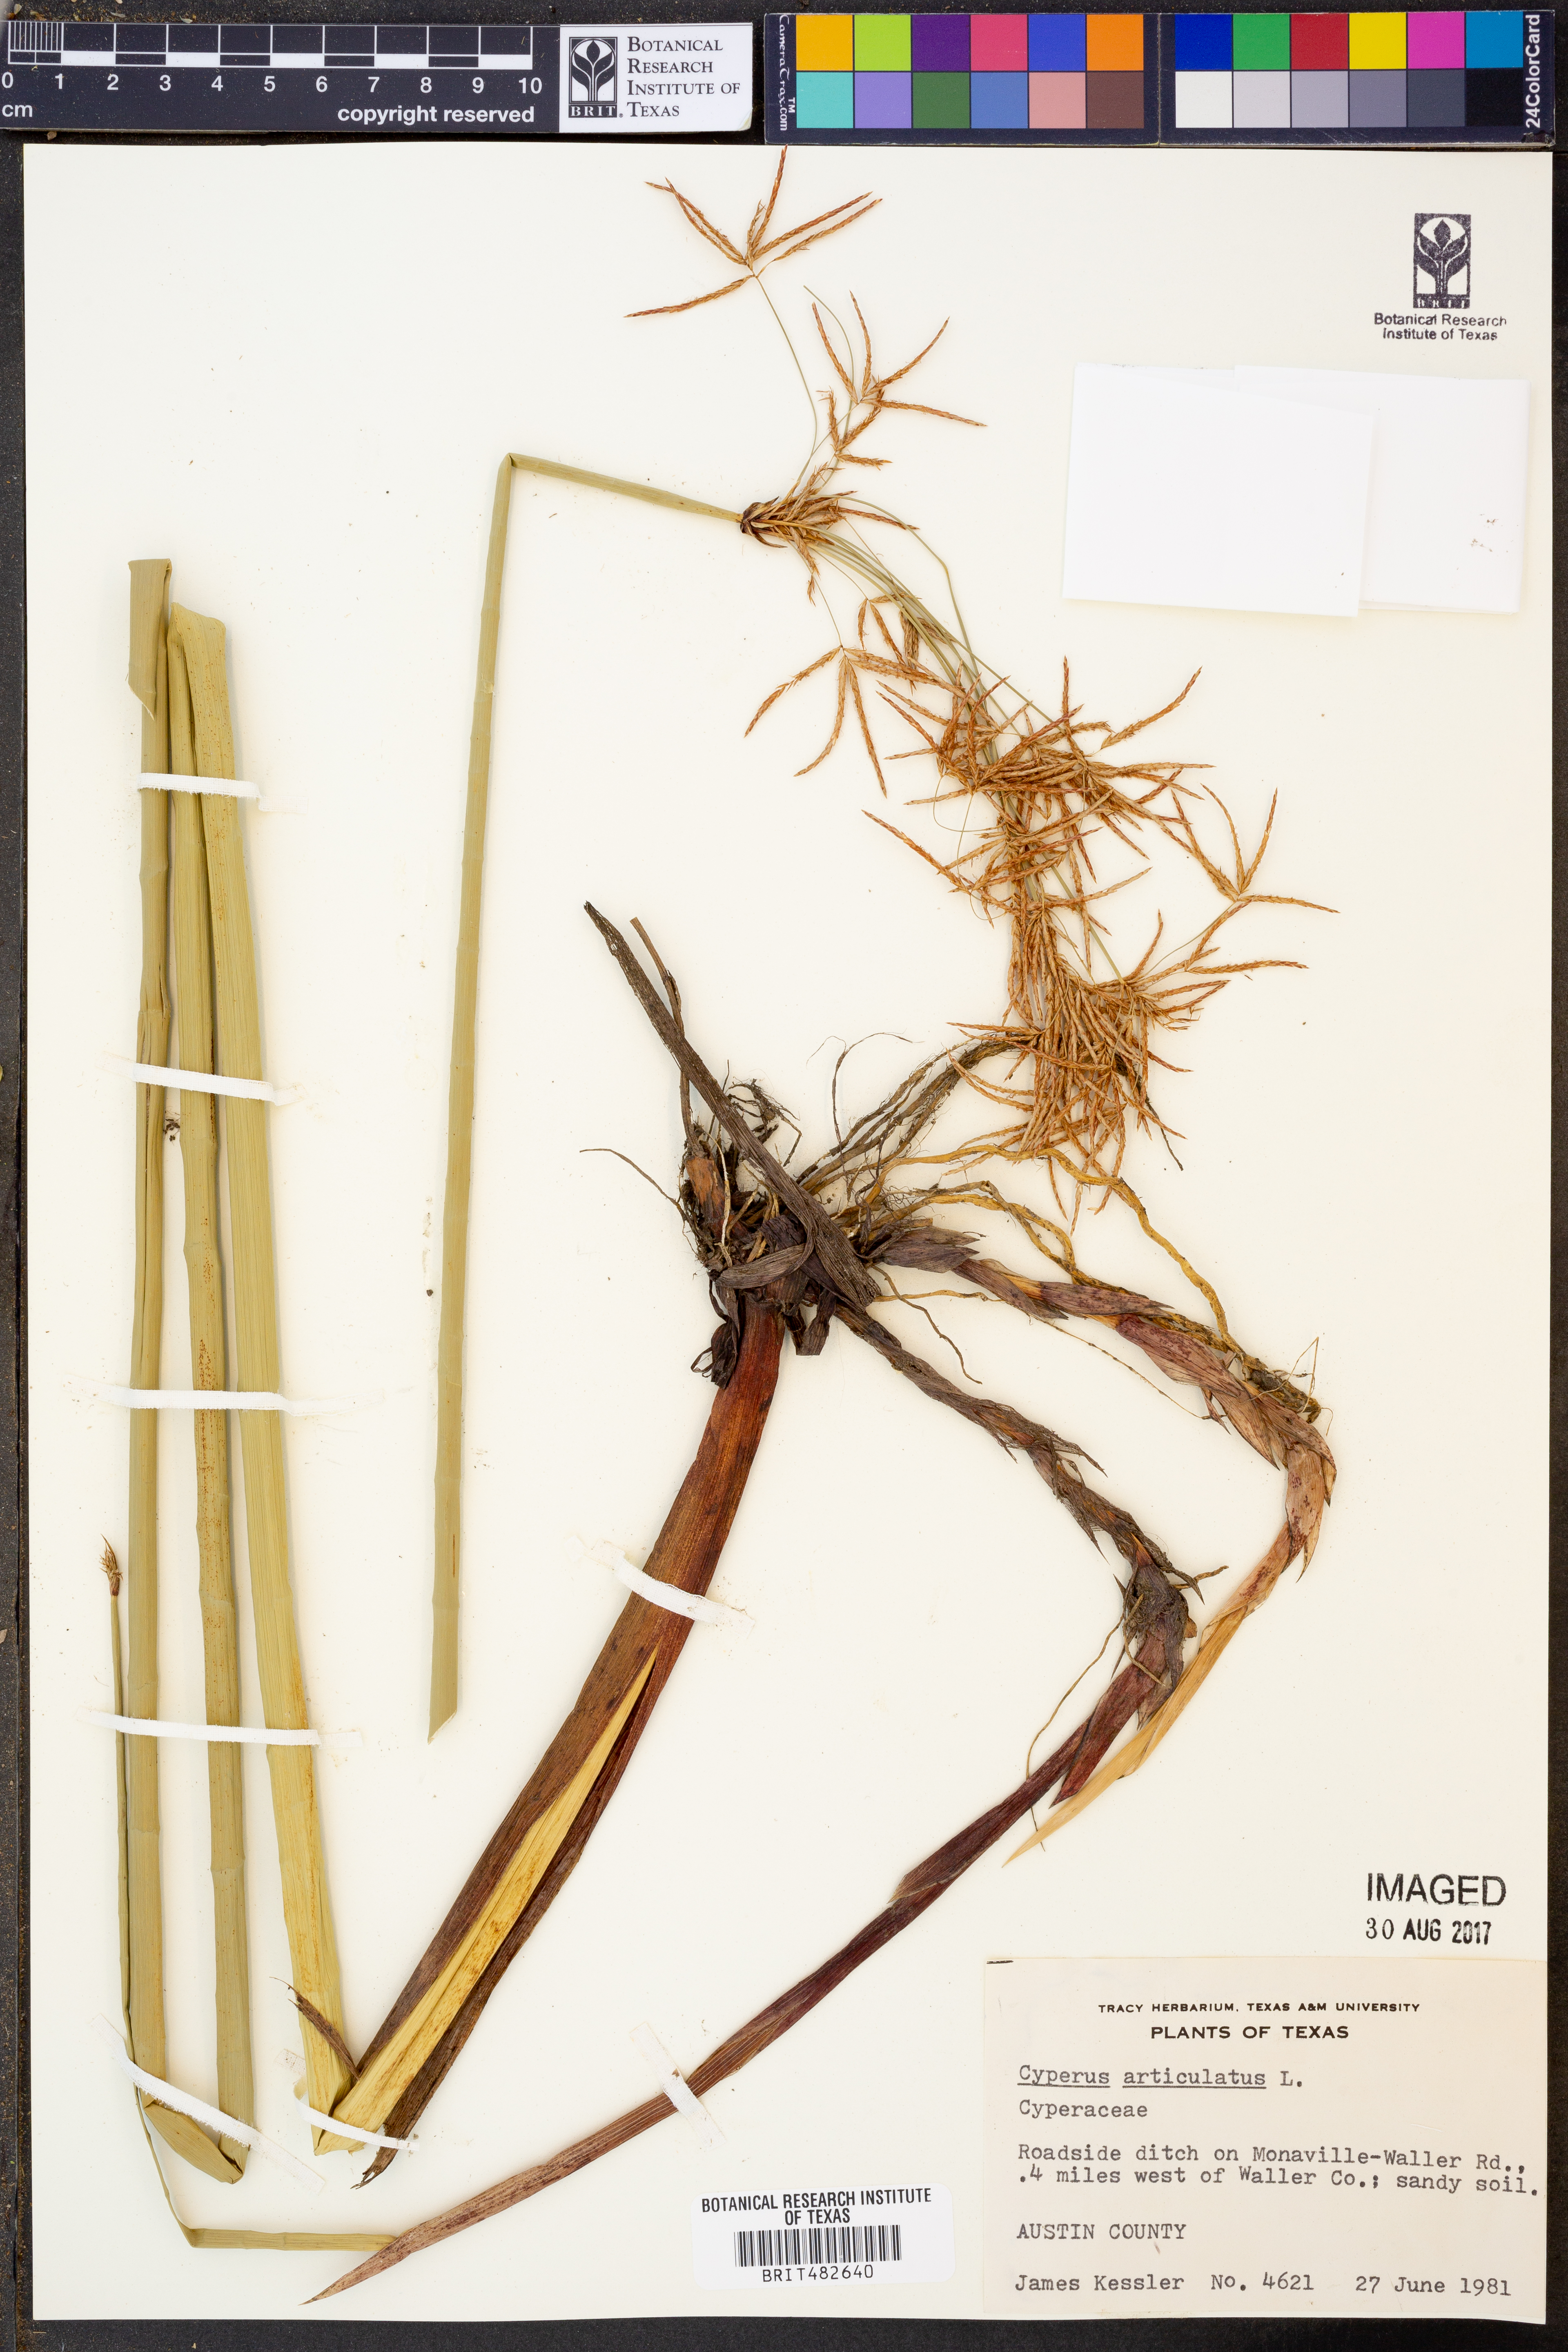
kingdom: Plantae
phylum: Tracheophyta
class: Liliopsida
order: Poales
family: Cyperaceae
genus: Cyperus
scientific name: Cyperus articulatus
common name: Jointed flatsedge
